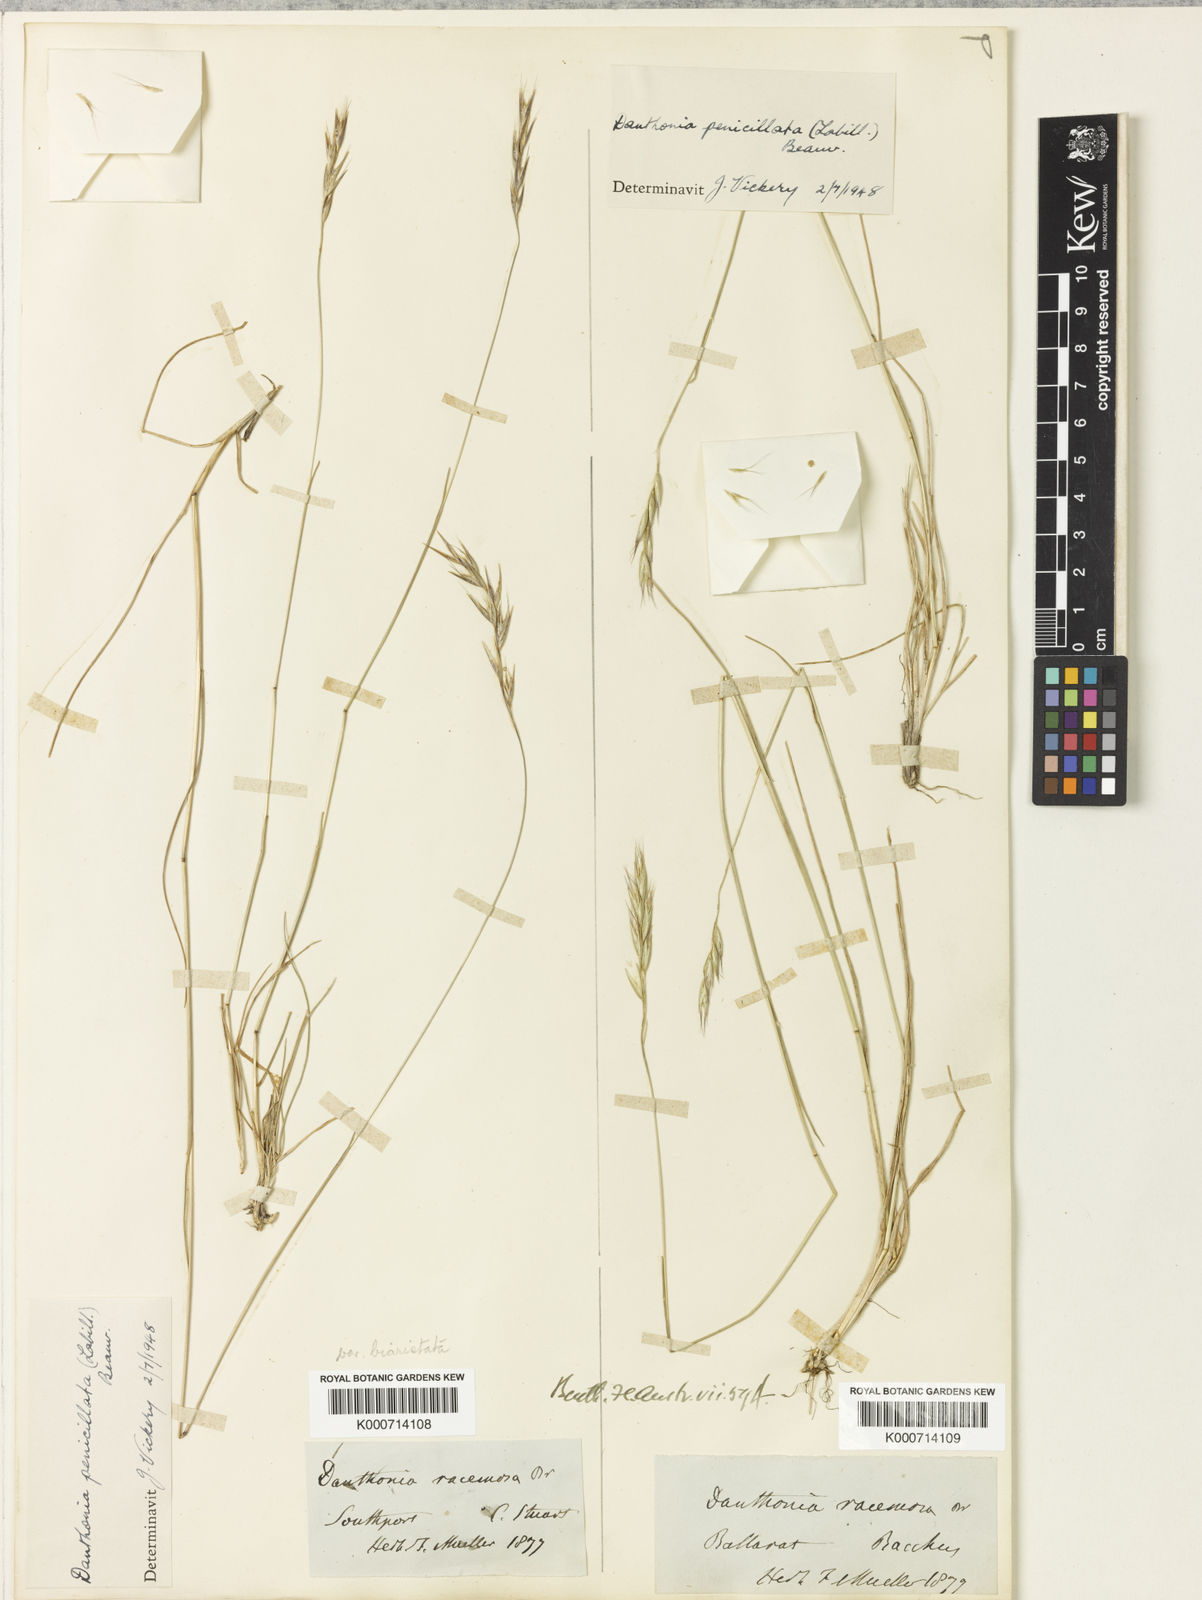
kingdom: Plantae
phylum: Tracheophyta
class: Liliopsida
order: Poales
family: Poaceae
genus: Rytidosperma
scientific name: Rytidosperma racemosum
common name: Wallaby-grass
